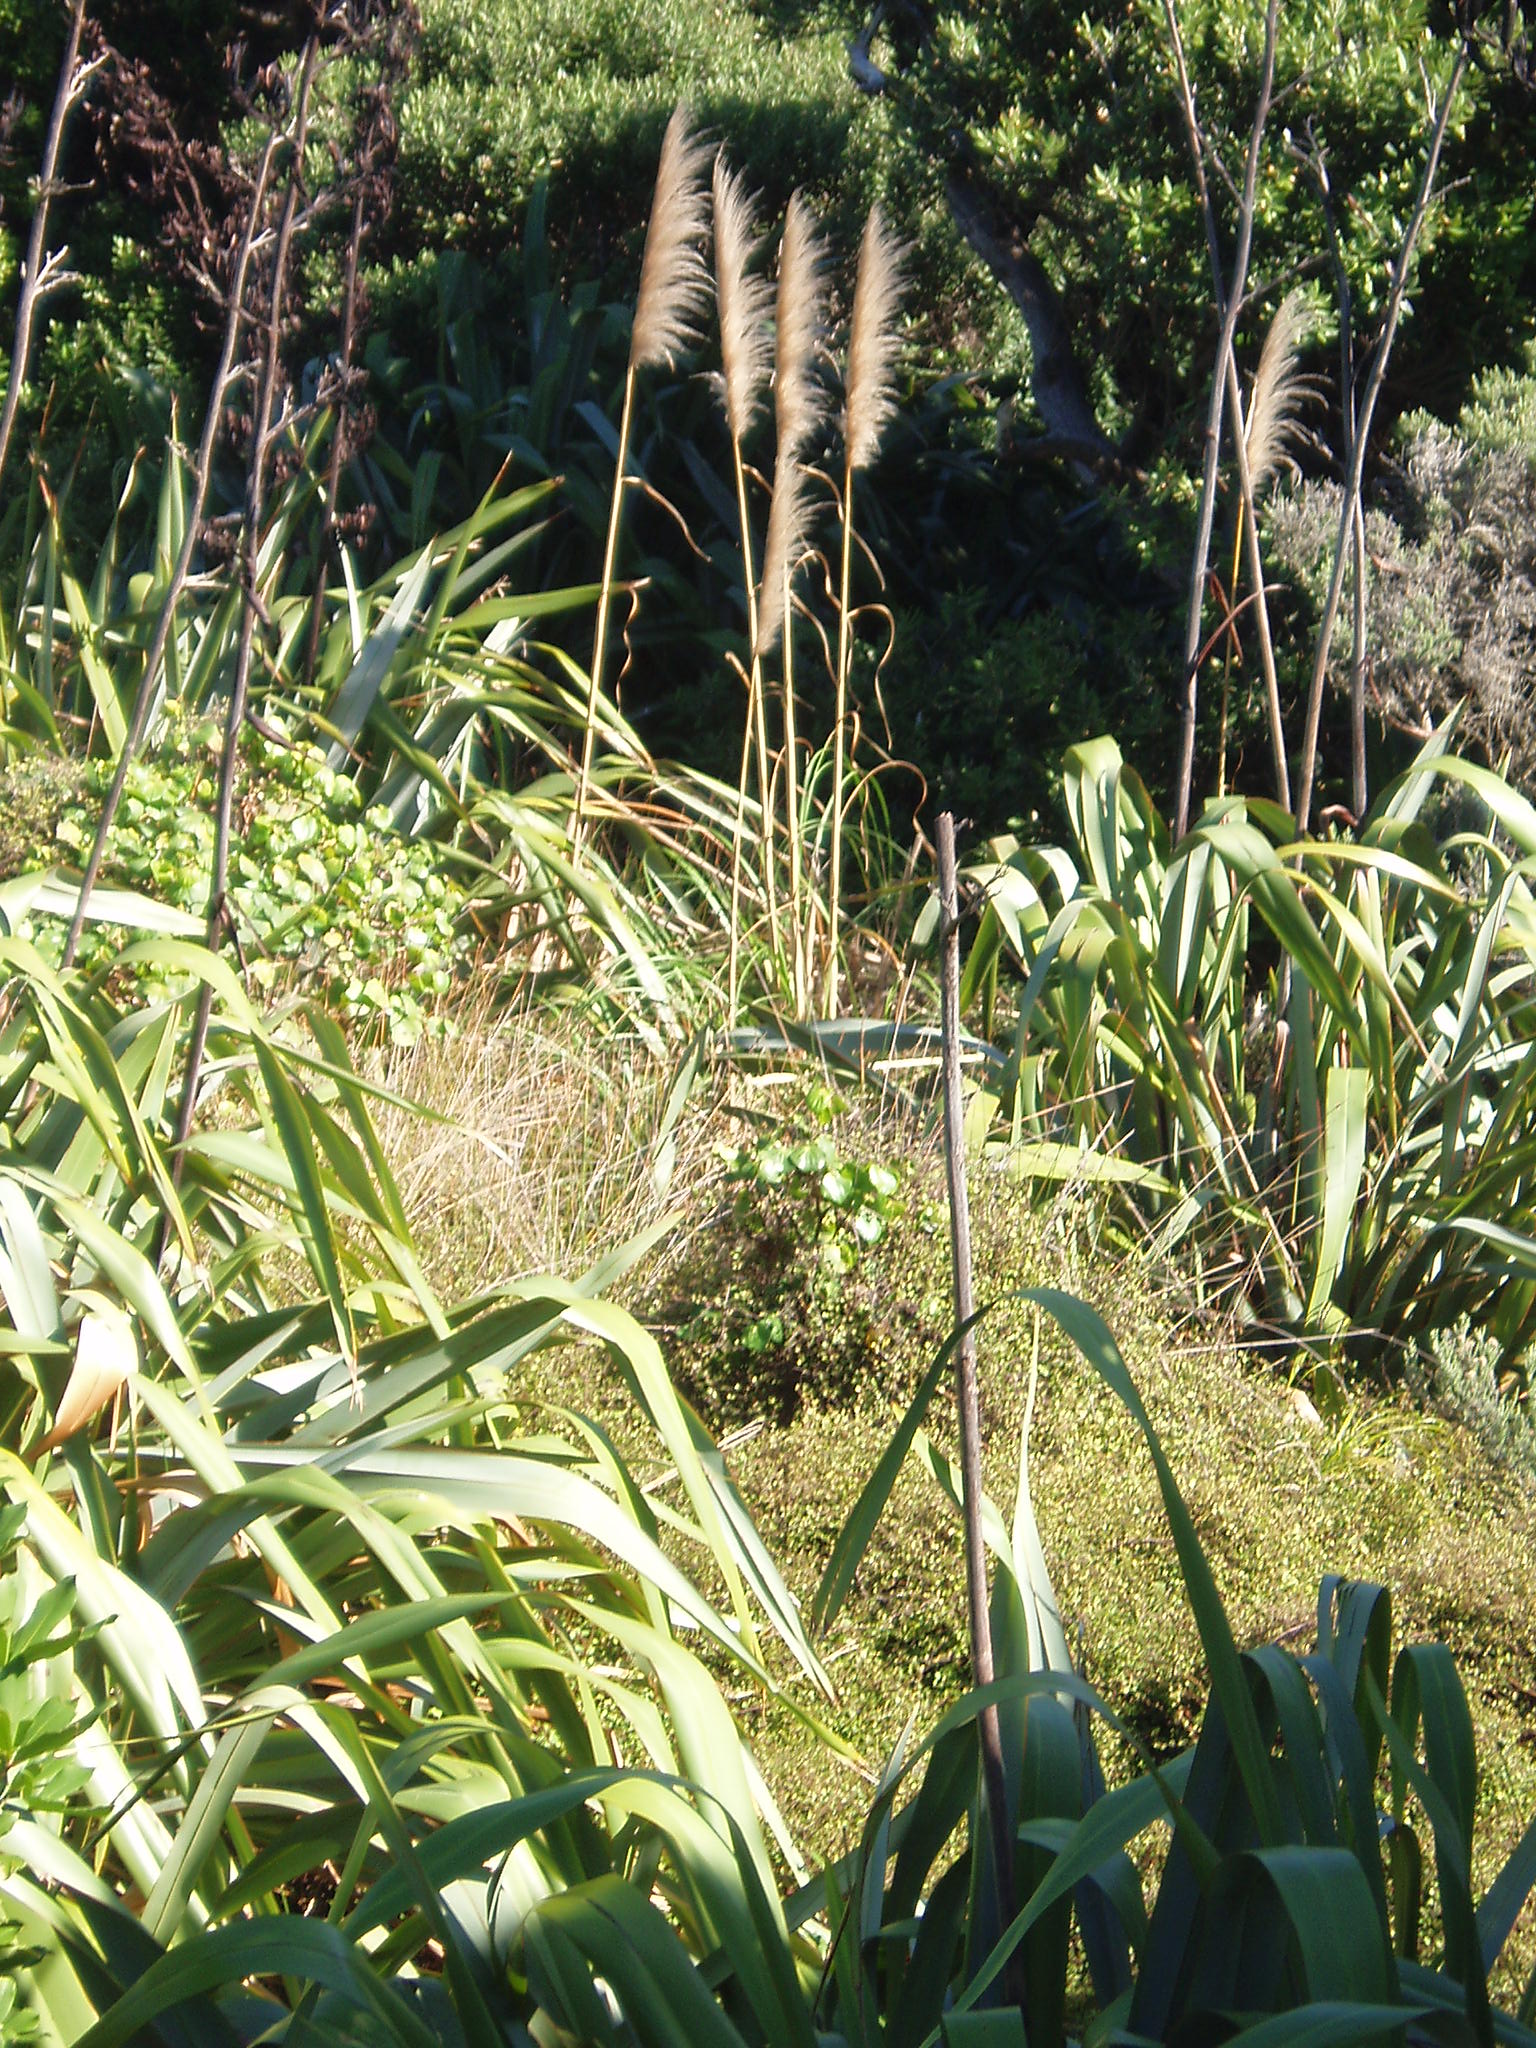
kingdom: Plantae
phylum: Tracheophyta
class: Liliopsida
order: Poales
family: Poaceae
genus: Cortaderia
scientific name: Cortaderia jubata
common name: Purple pampas grass
